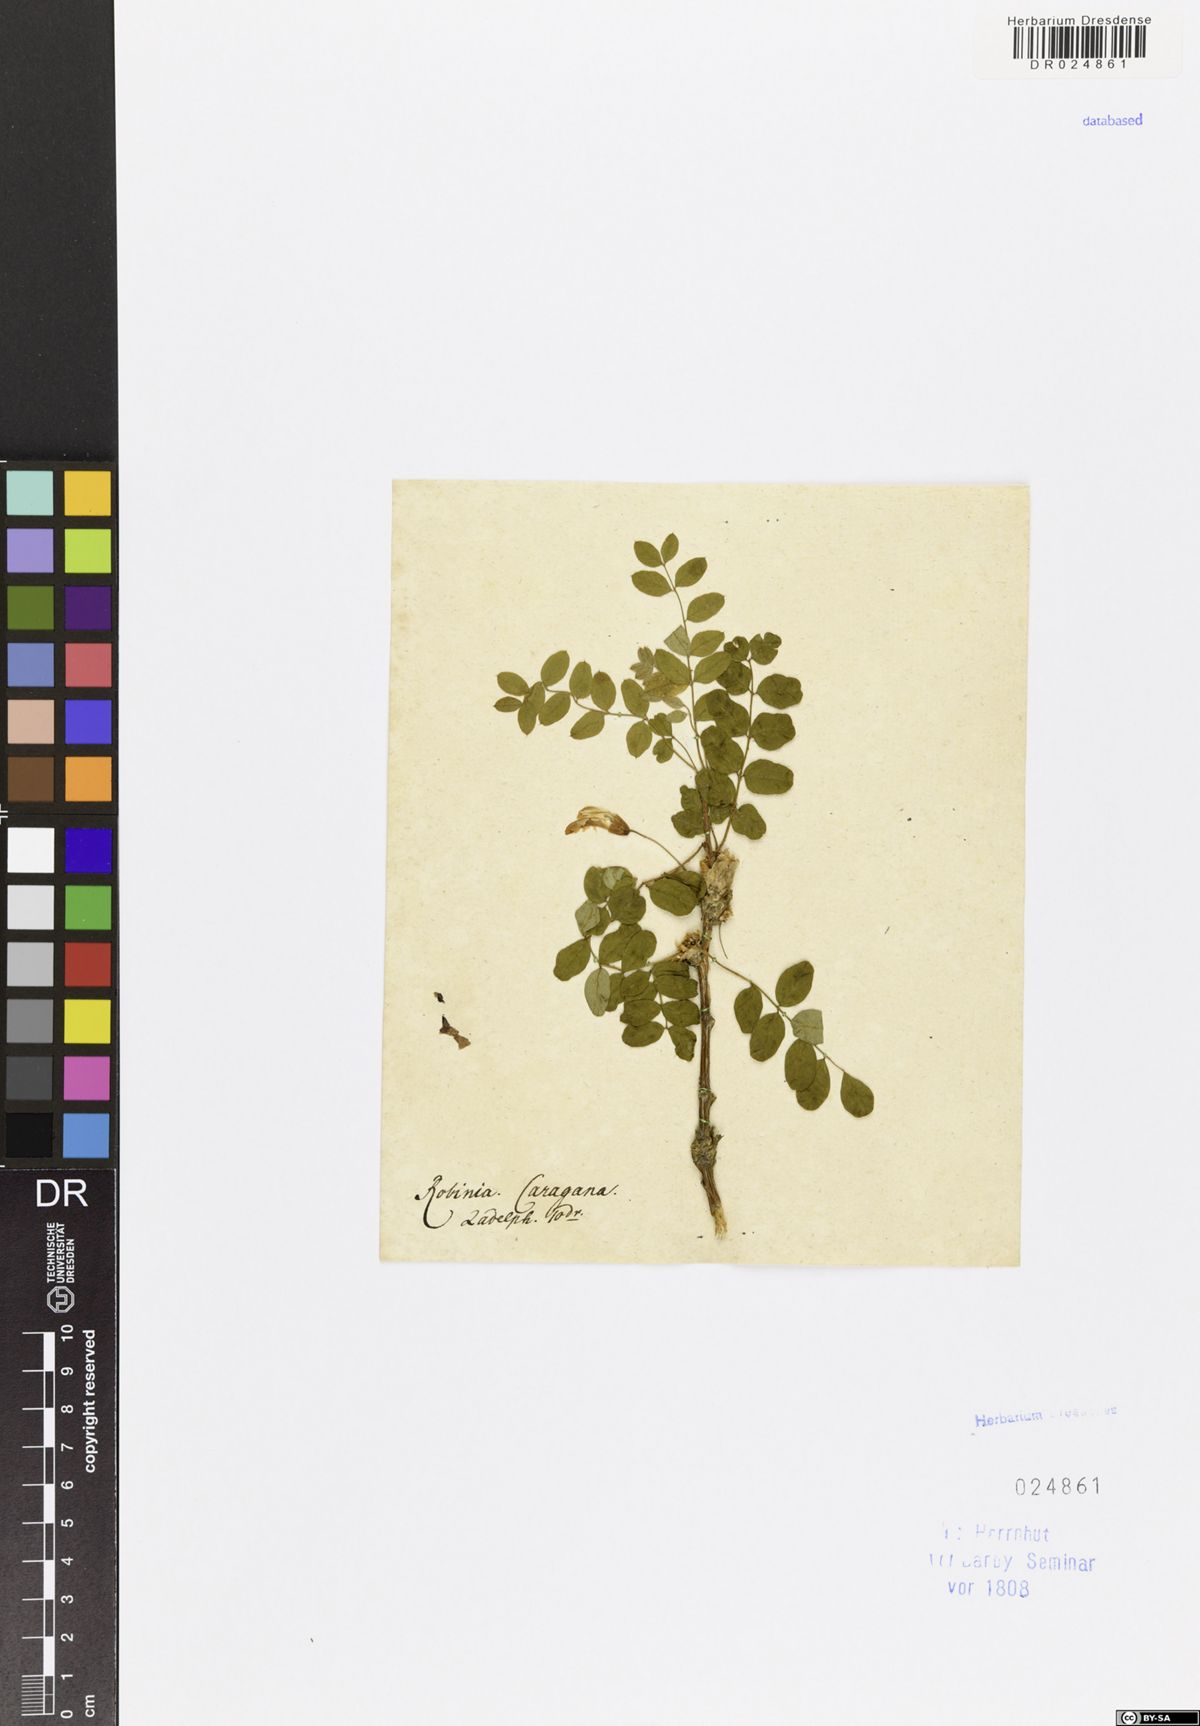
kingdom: Plantae
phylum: Tracheophyta
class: Magnoliopsida
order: Fabales
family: Fabaceae
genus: Caragana
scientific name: Caragana arborescens
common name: Siberian peashrub
